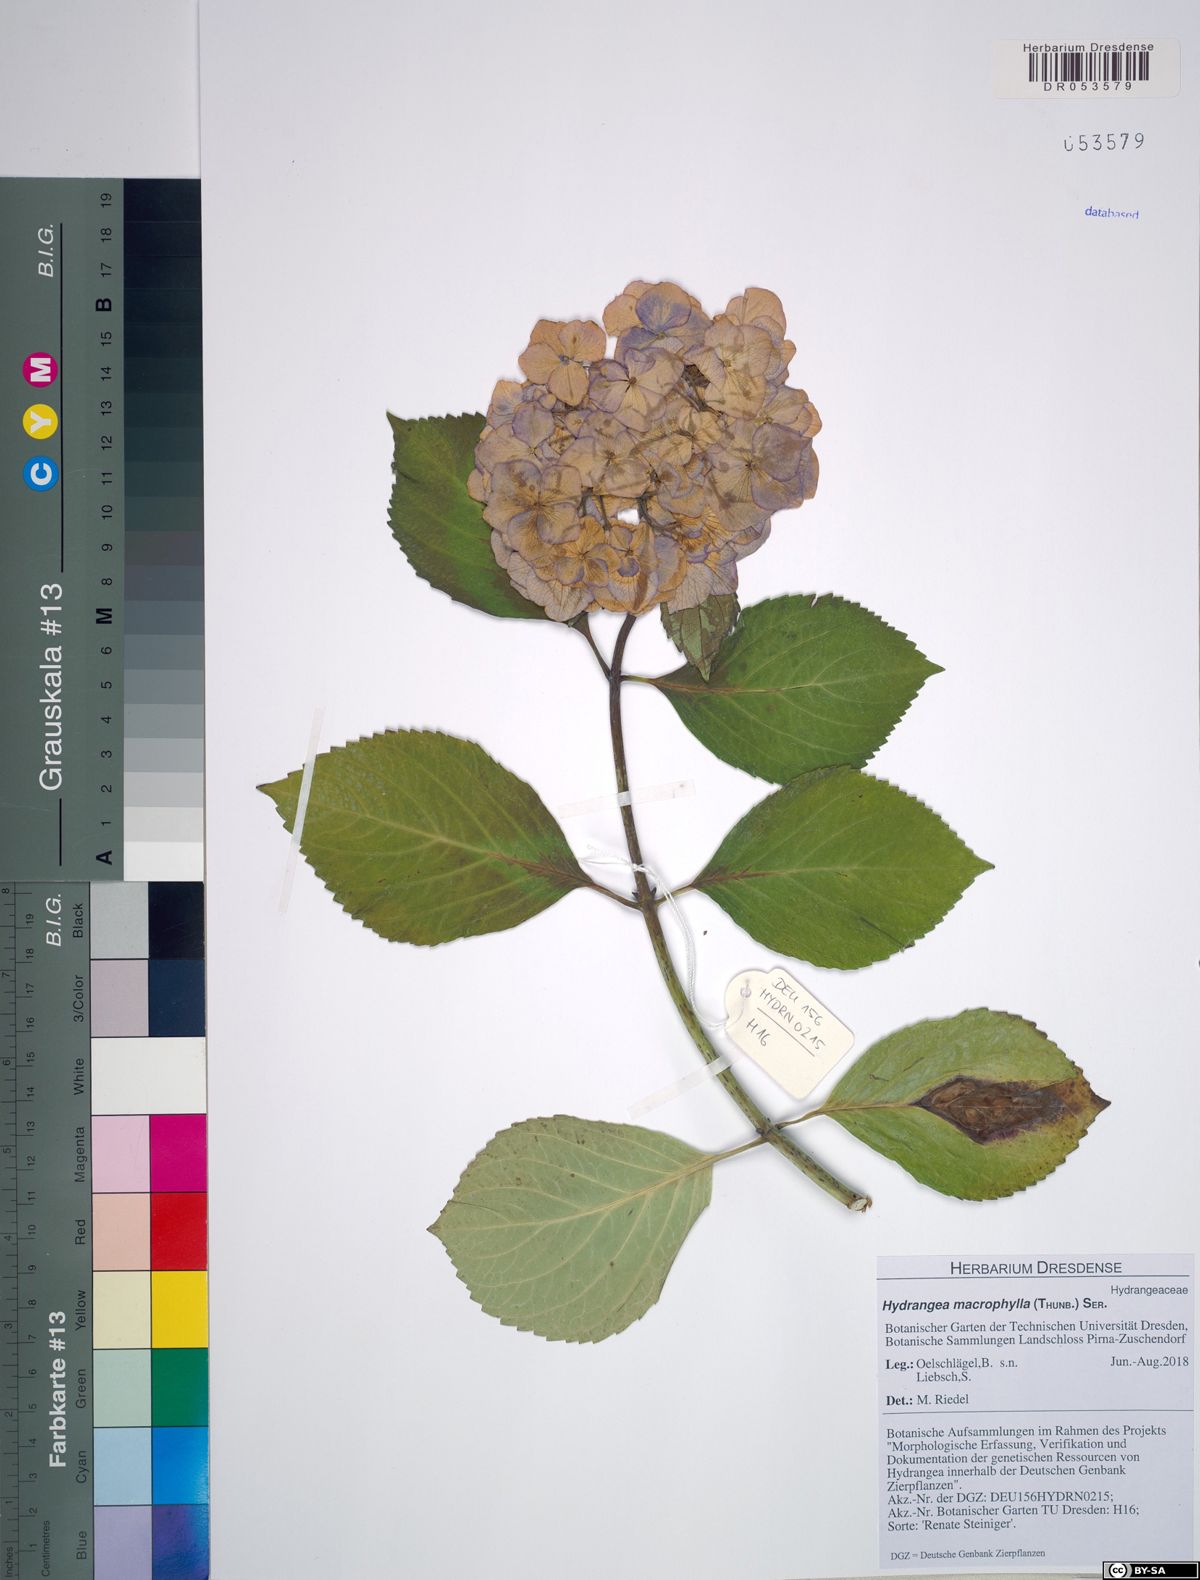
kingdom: Plantae
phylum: Tracheophyta
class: Magnoliopsida
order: Cornales
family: Hydrangeaceae
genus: Hydrangea
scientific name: Hydrangea macrophylla
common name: Hydrangea
